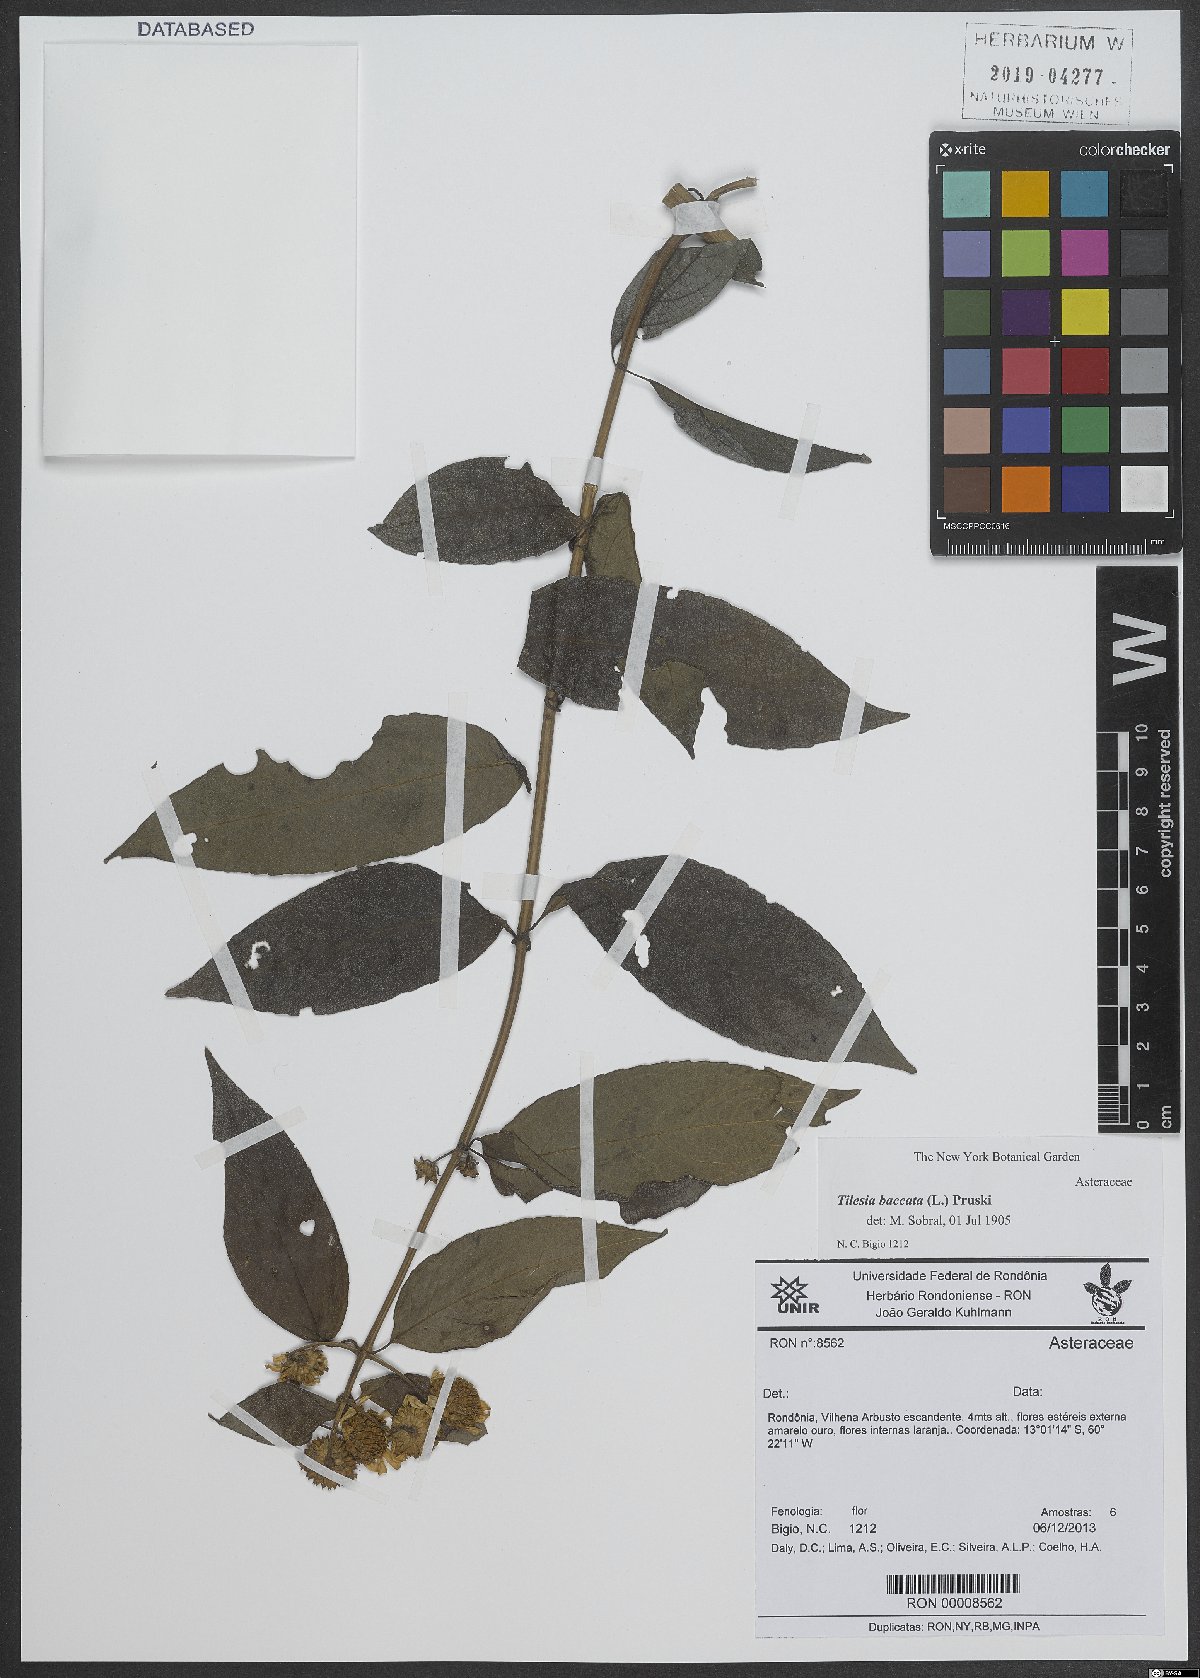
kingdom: Plantae
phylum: Tracheophyta
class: Magnoliopsida
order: Asterales
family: Asteraceae
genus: Tilesia
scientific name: Tilesia baccata
